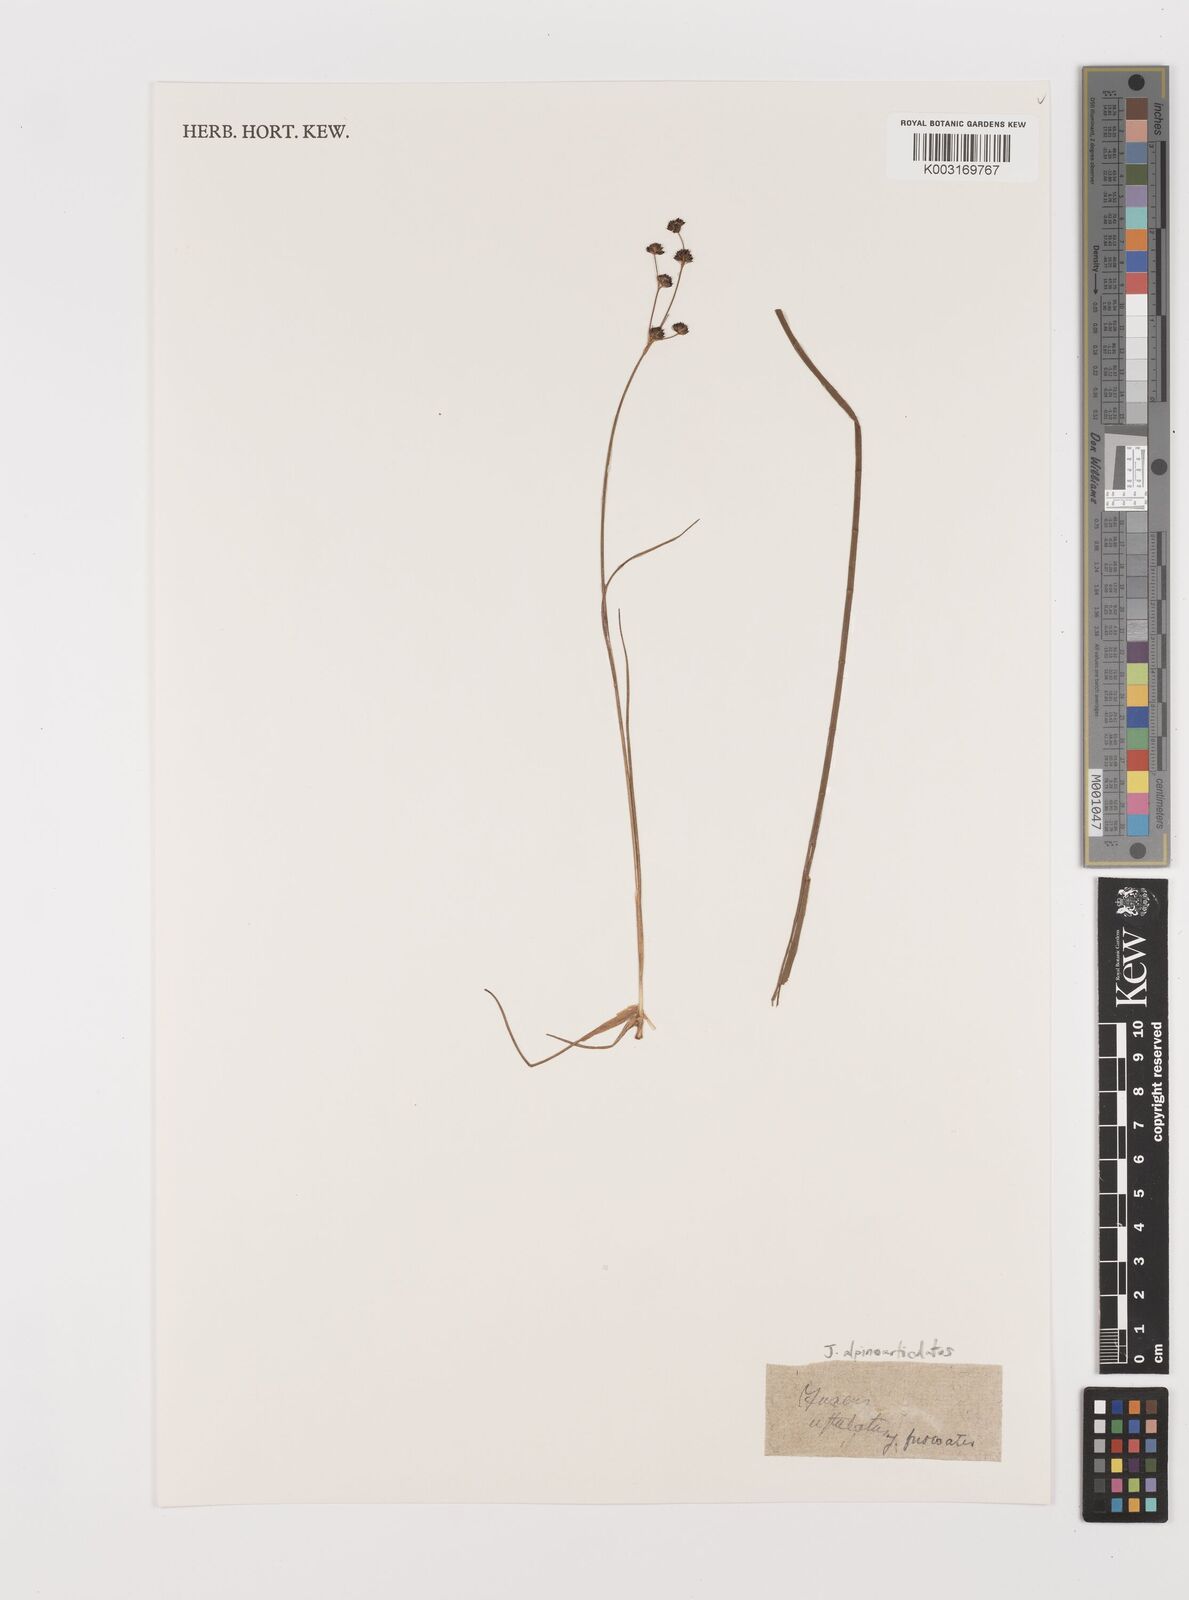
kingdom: Plantae
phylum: Tracheophyta
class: Liliopsida
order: Poales
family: Juncaceae
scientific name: Juncaceae
